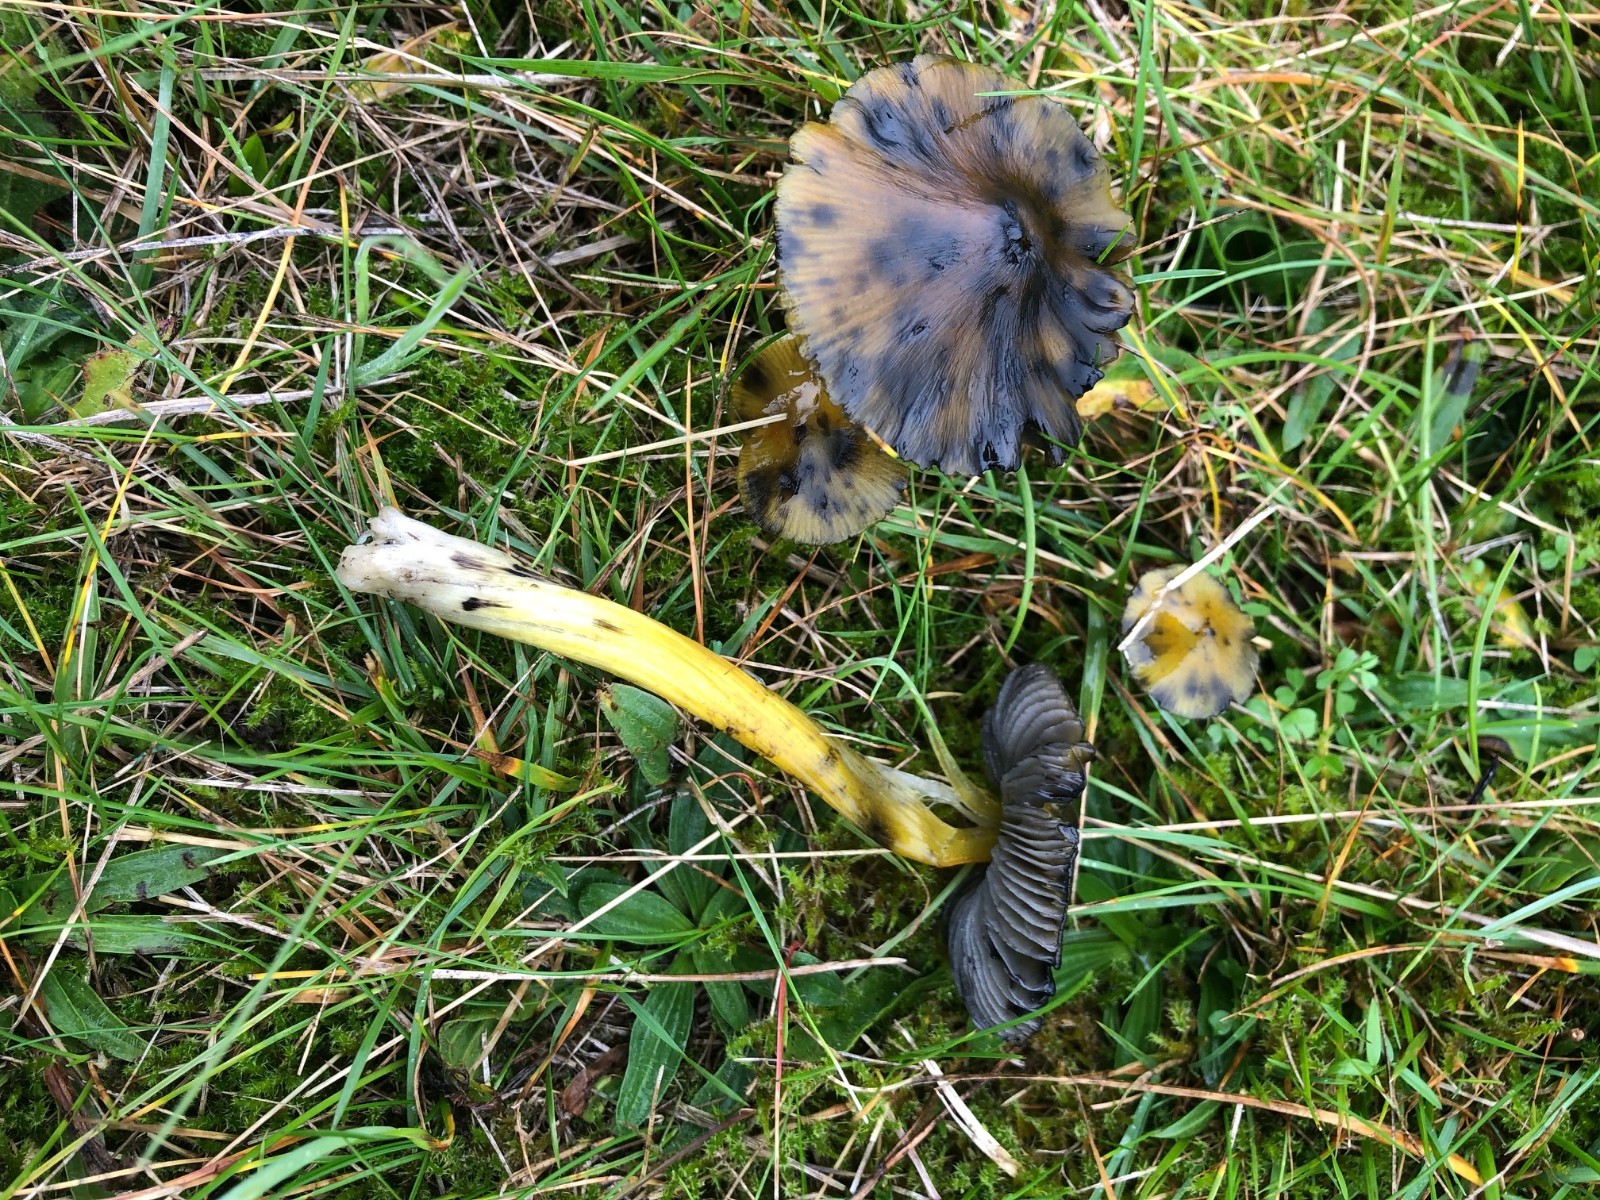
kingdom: Fungi
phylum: Basidiomycota
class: Agaricomycetes
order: Agaricales
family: Hygrophoraceae
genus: Hygrocybe
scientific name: Hygrocybe conica
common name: kegle-vokshat
